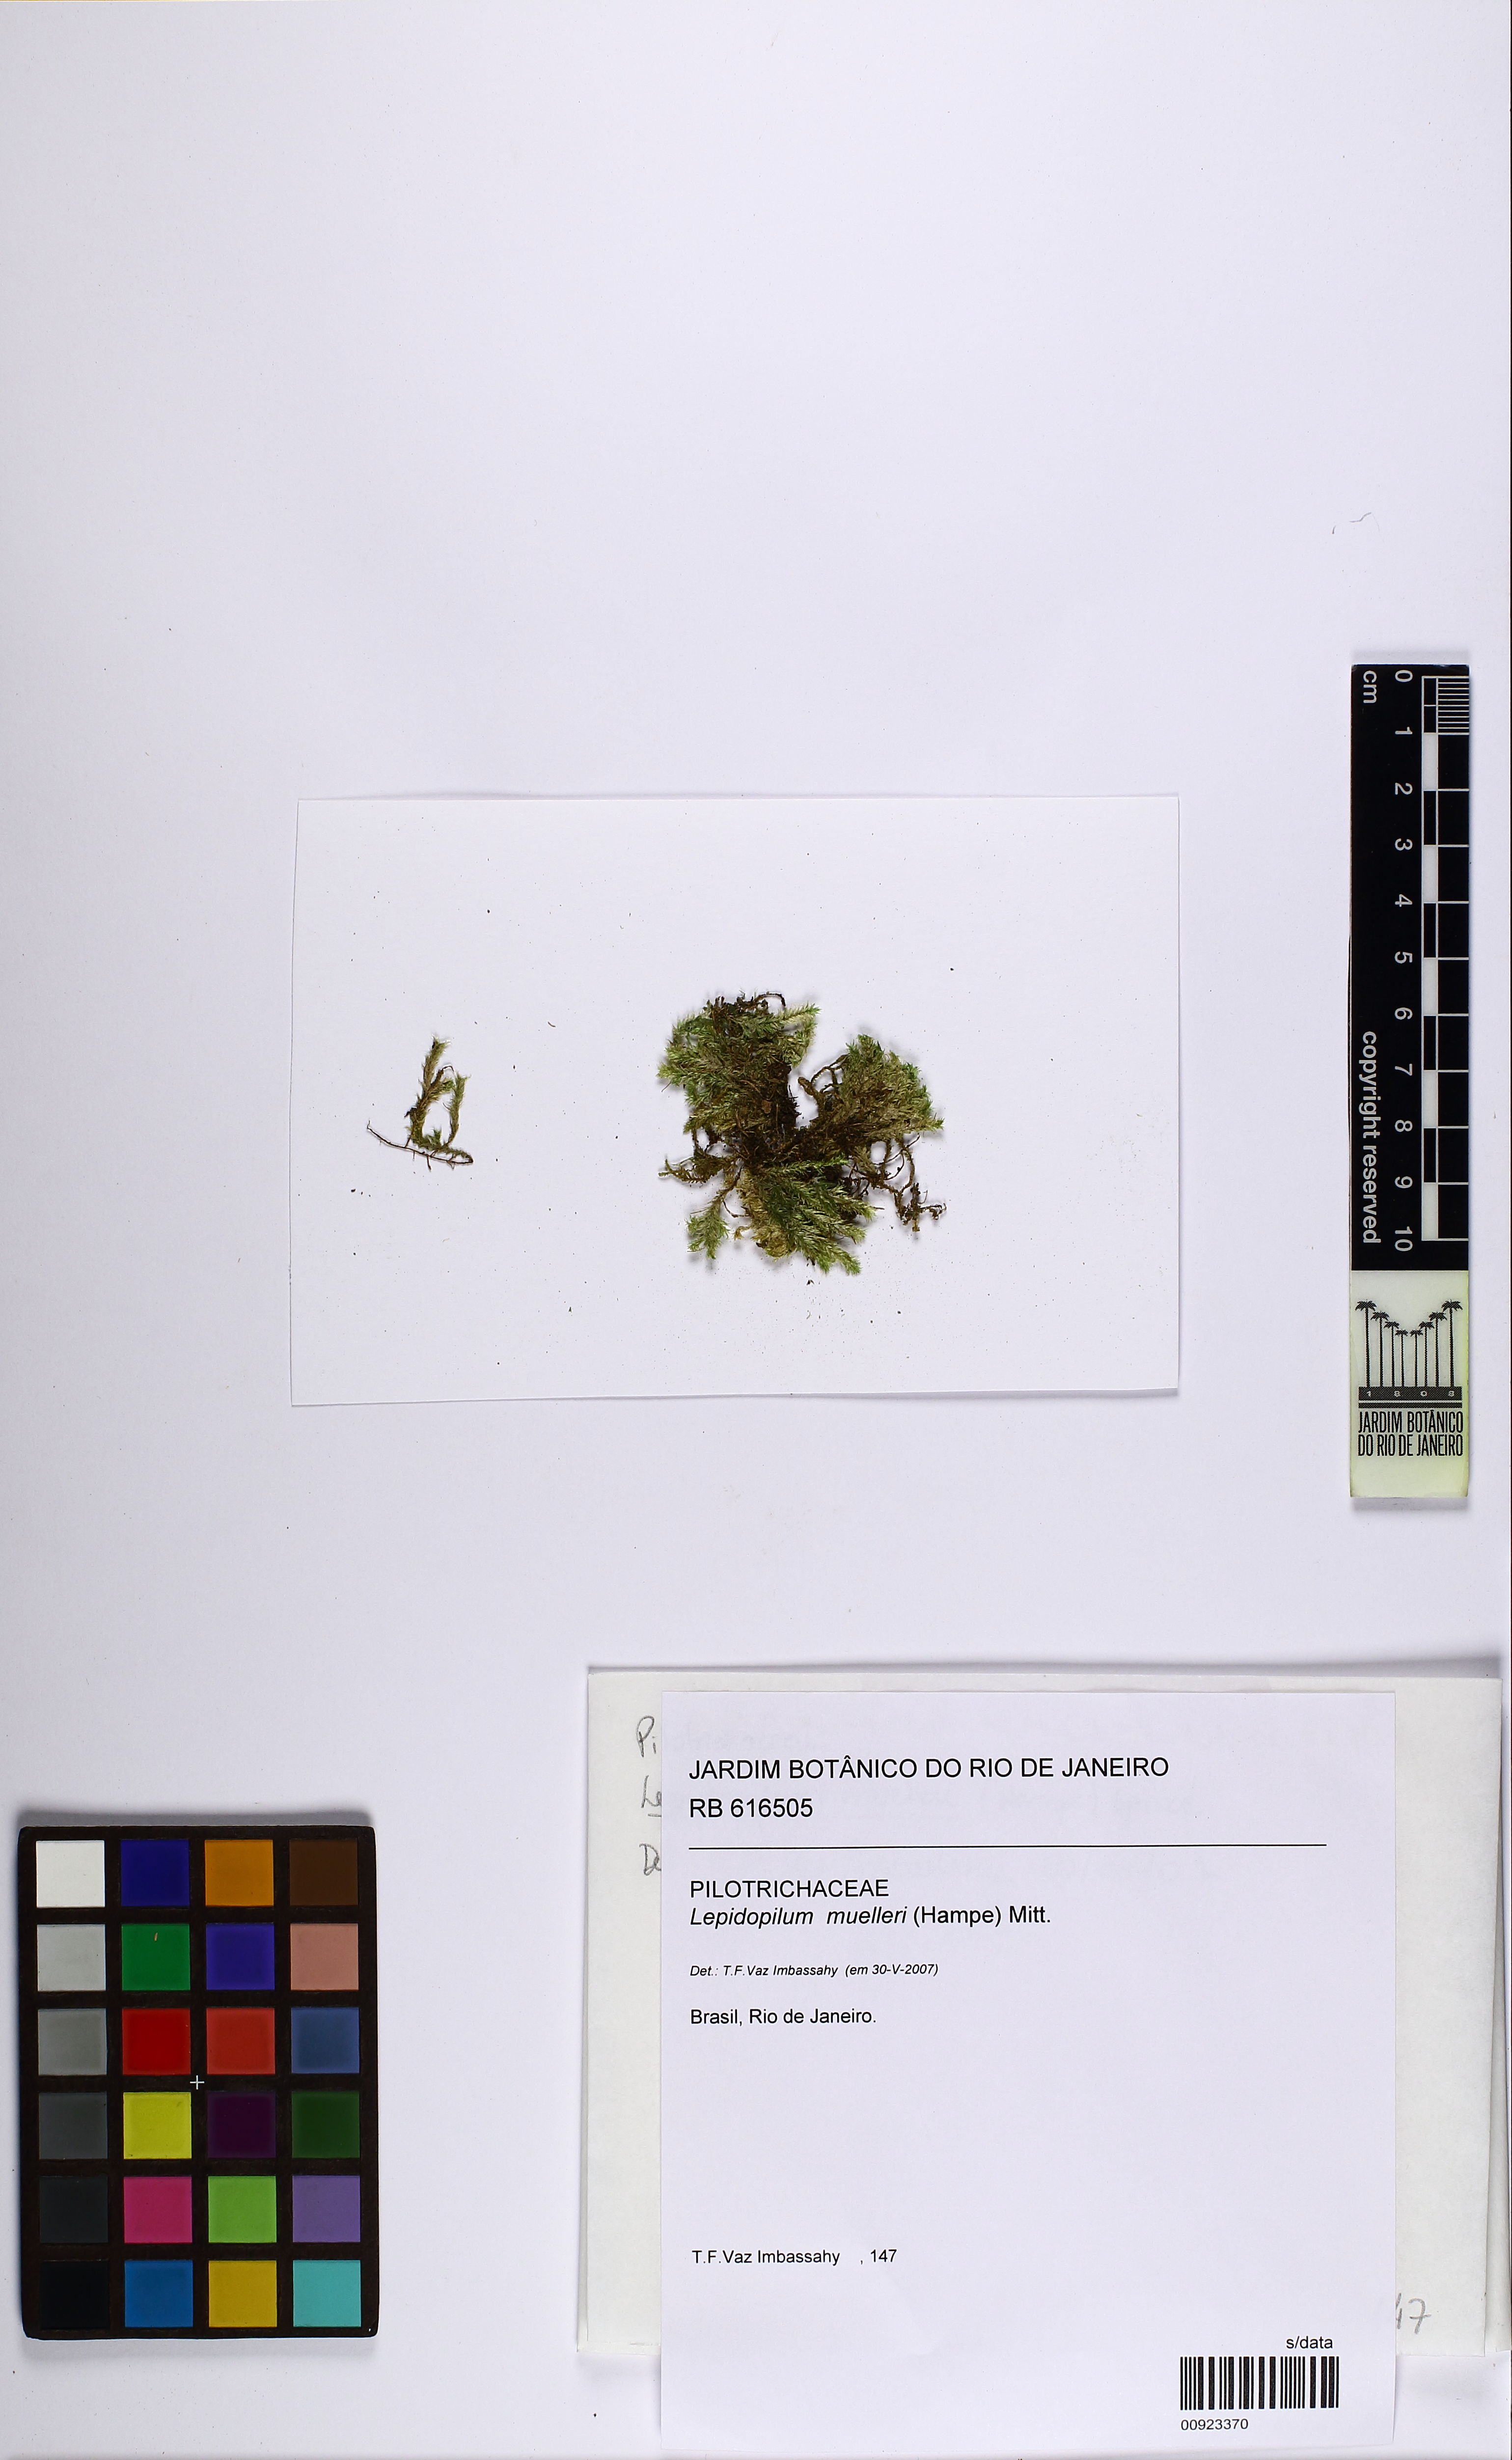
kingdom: Plantae
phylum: Bryophyta
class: Bryopsida
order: Hookeriales
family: Pilotrichaceae
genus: Lepidopilum
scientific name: Lepidopilum muelleri
